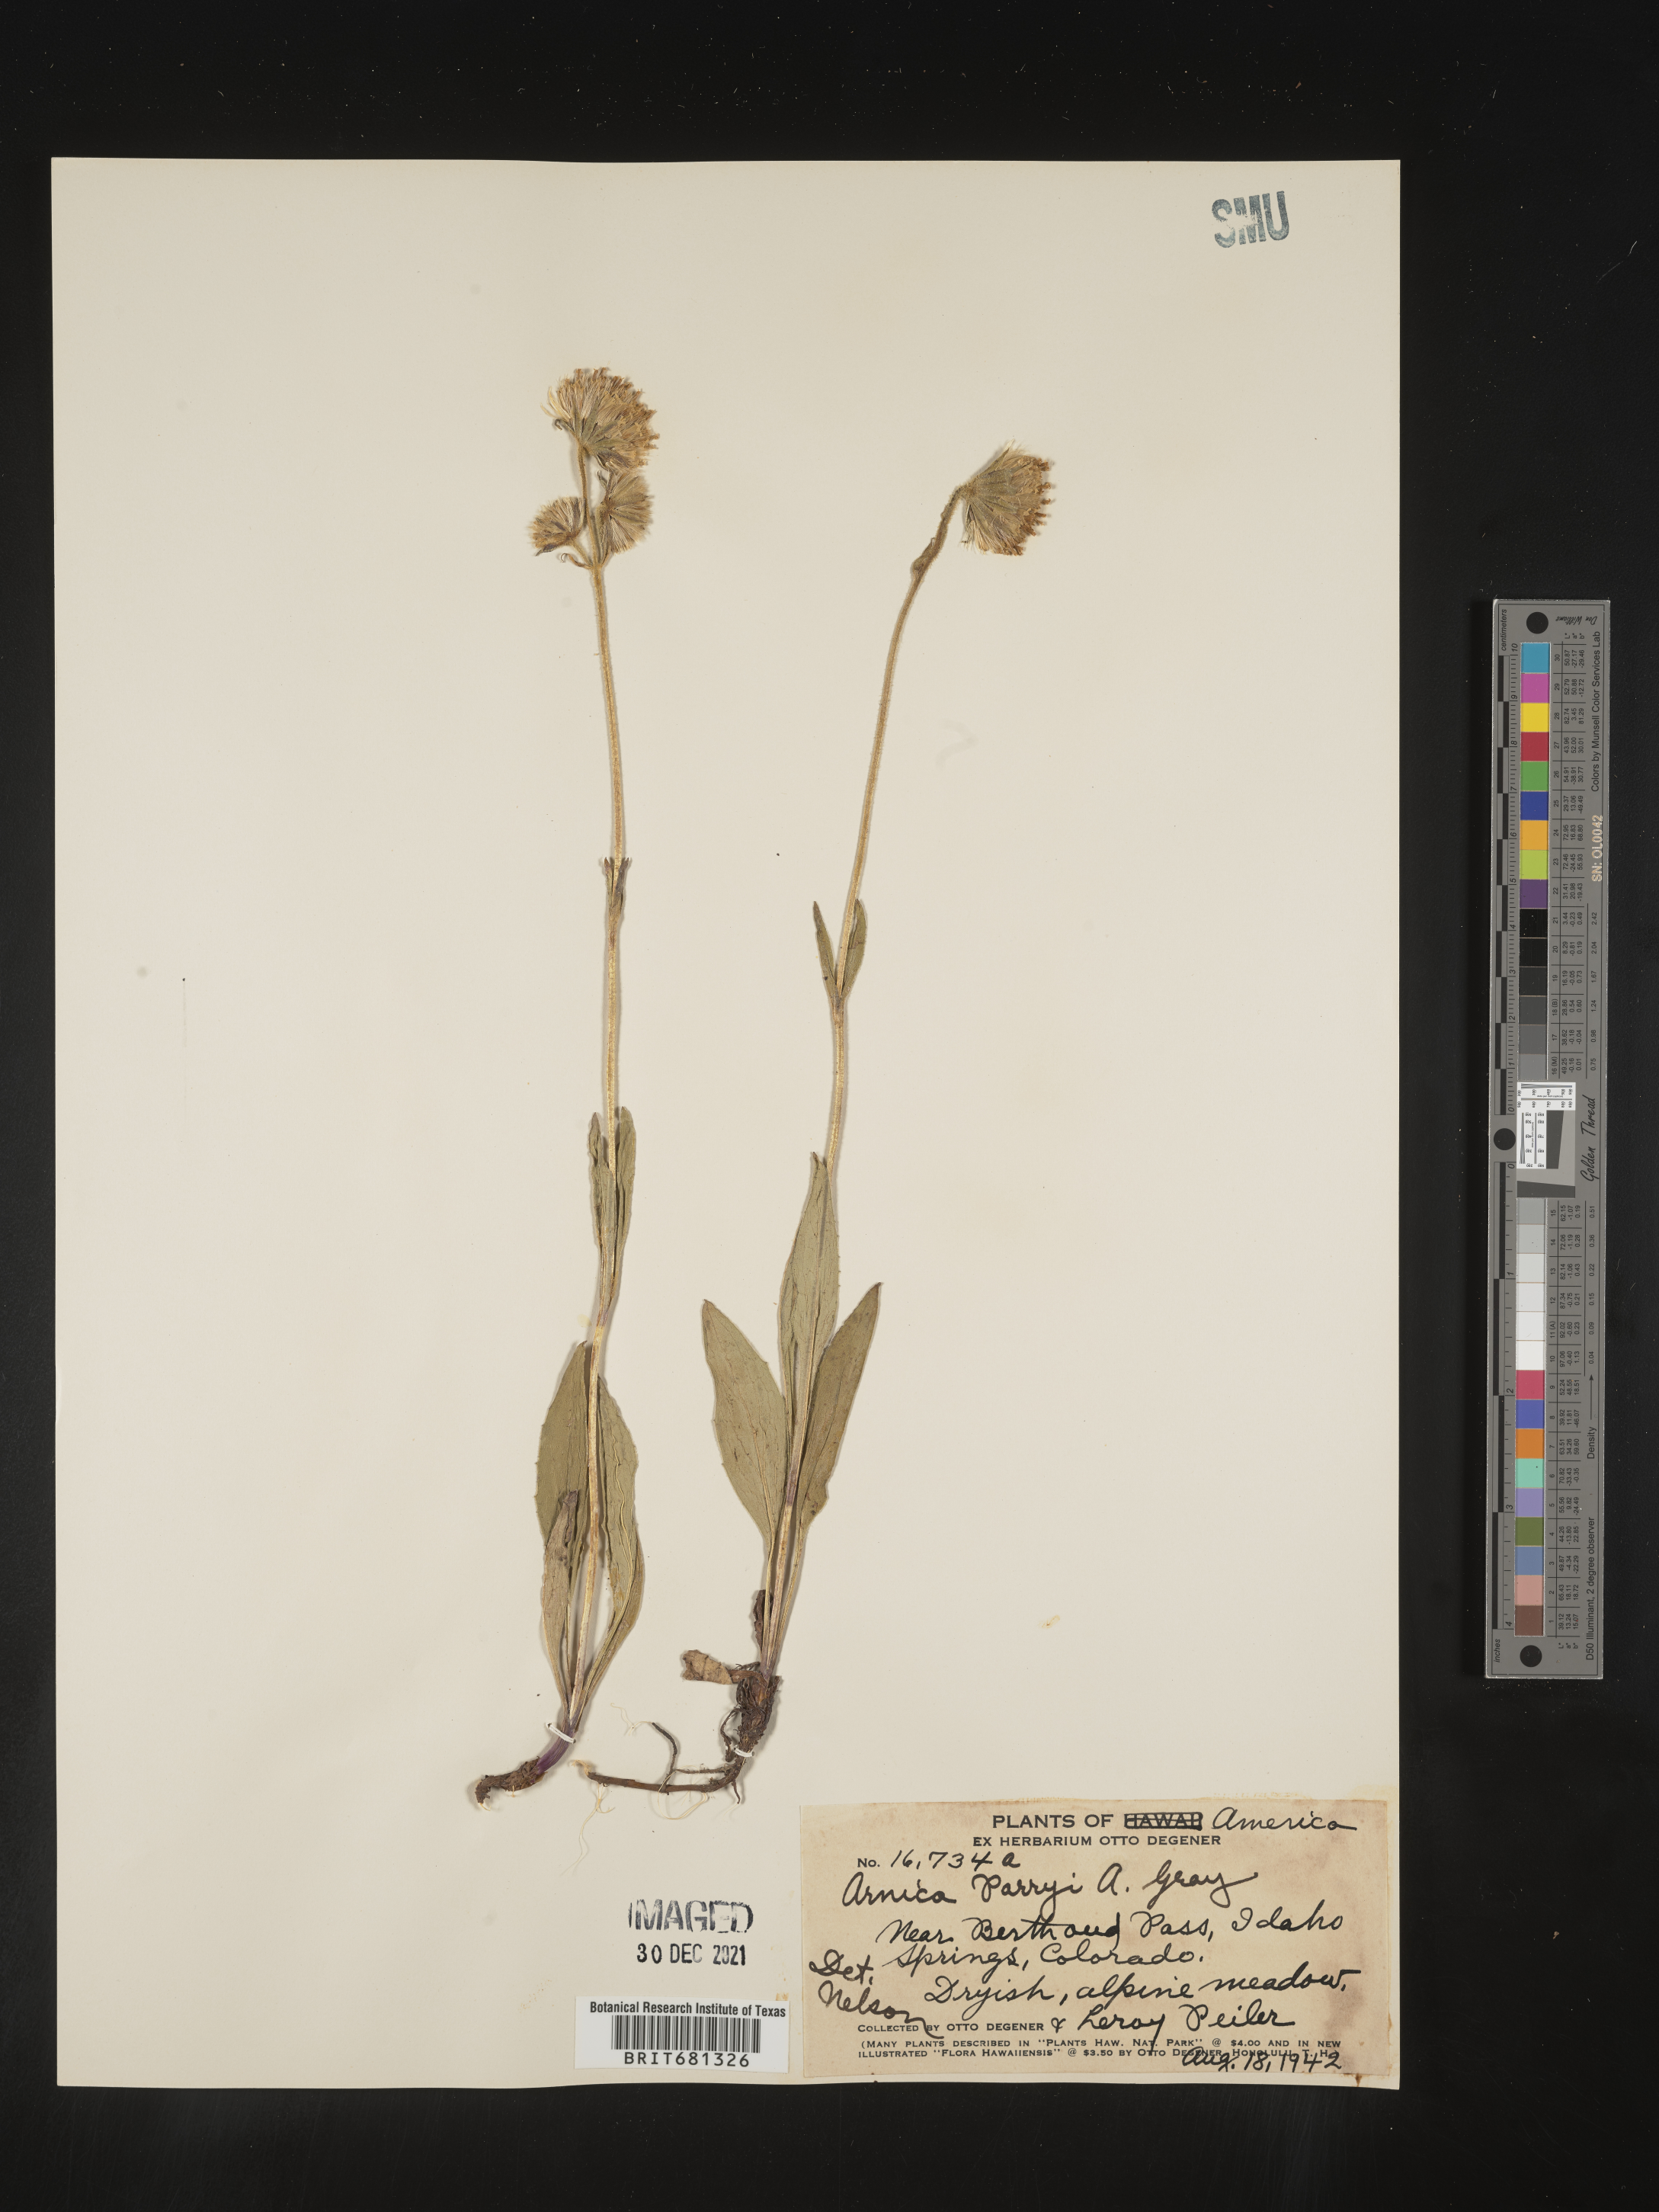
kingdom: Plantae
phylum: Tracheophyta
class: Magnoliopsida
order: Asterales
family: Asteraceae
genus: Arnica
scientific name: Arnica parryi
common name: Parry's arnica
